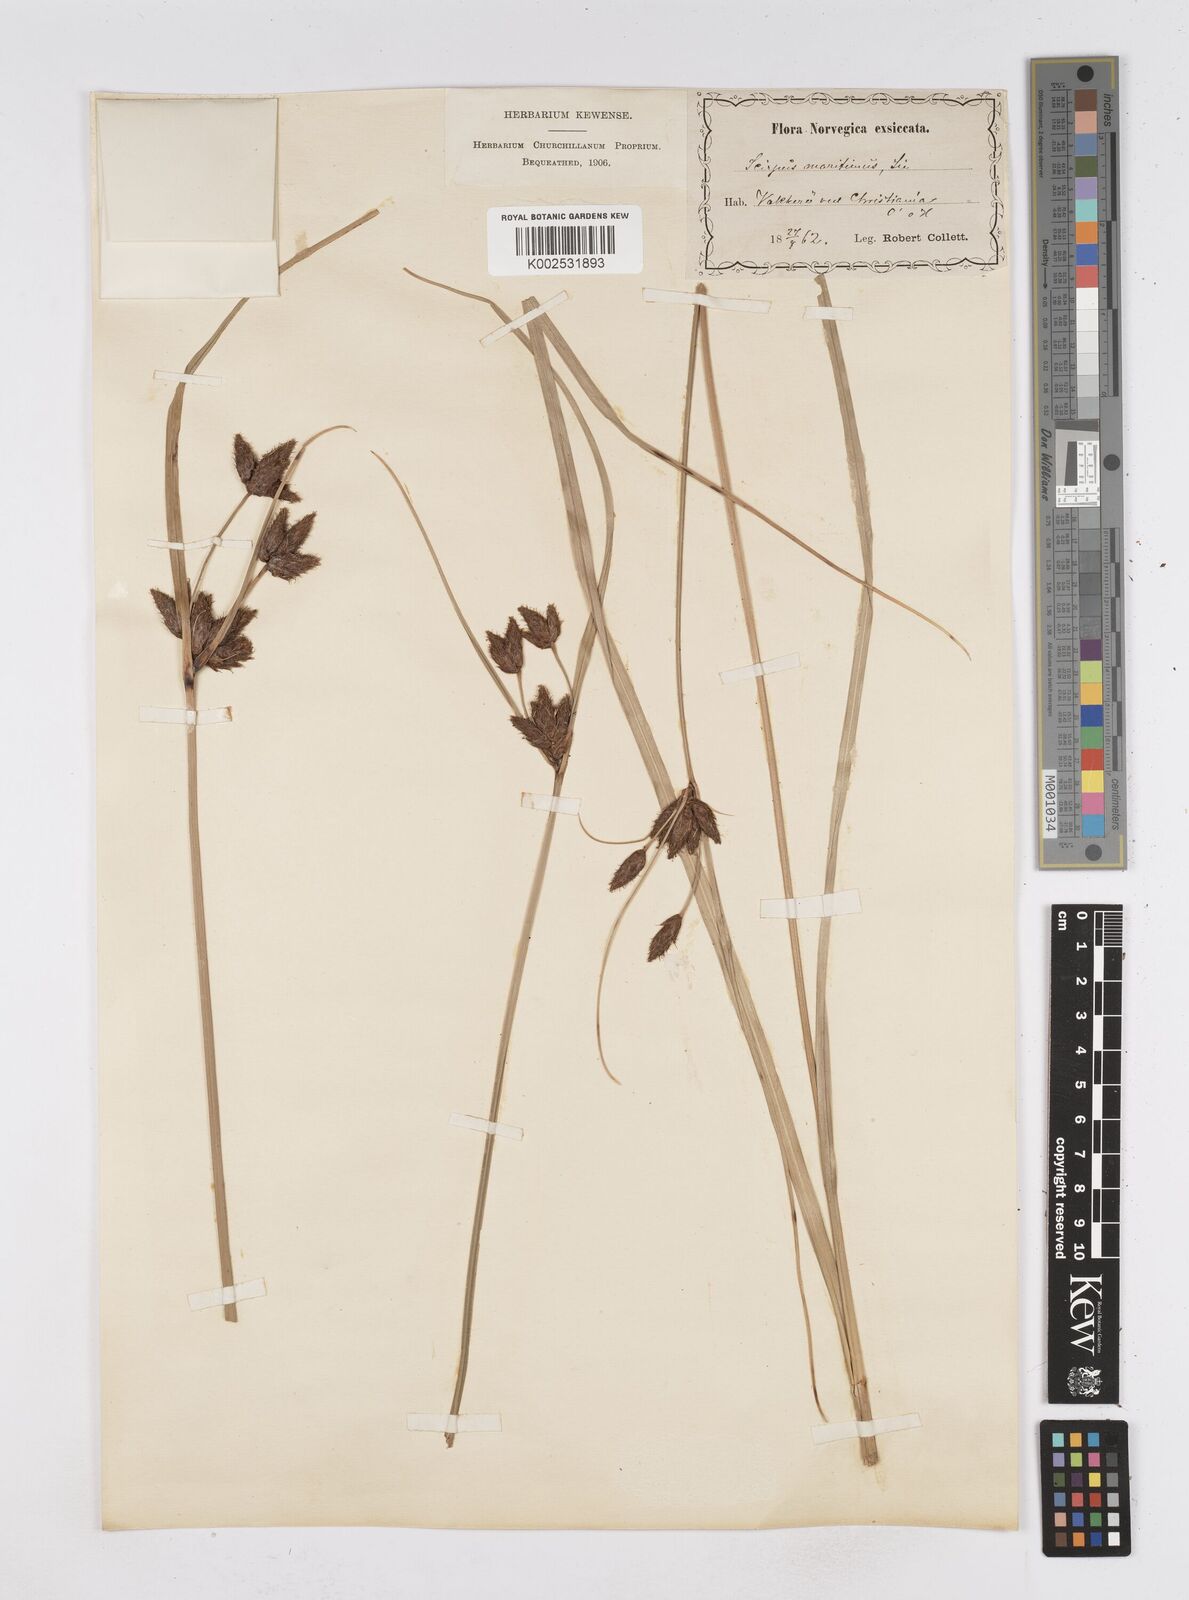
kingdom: Plantae
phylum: Tracheophyta
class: Liliopsida
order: Poales
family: Cyperaceae
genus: Bolboschoenus
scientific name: Bolboschoenus maritimus
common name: Sea club-rush
